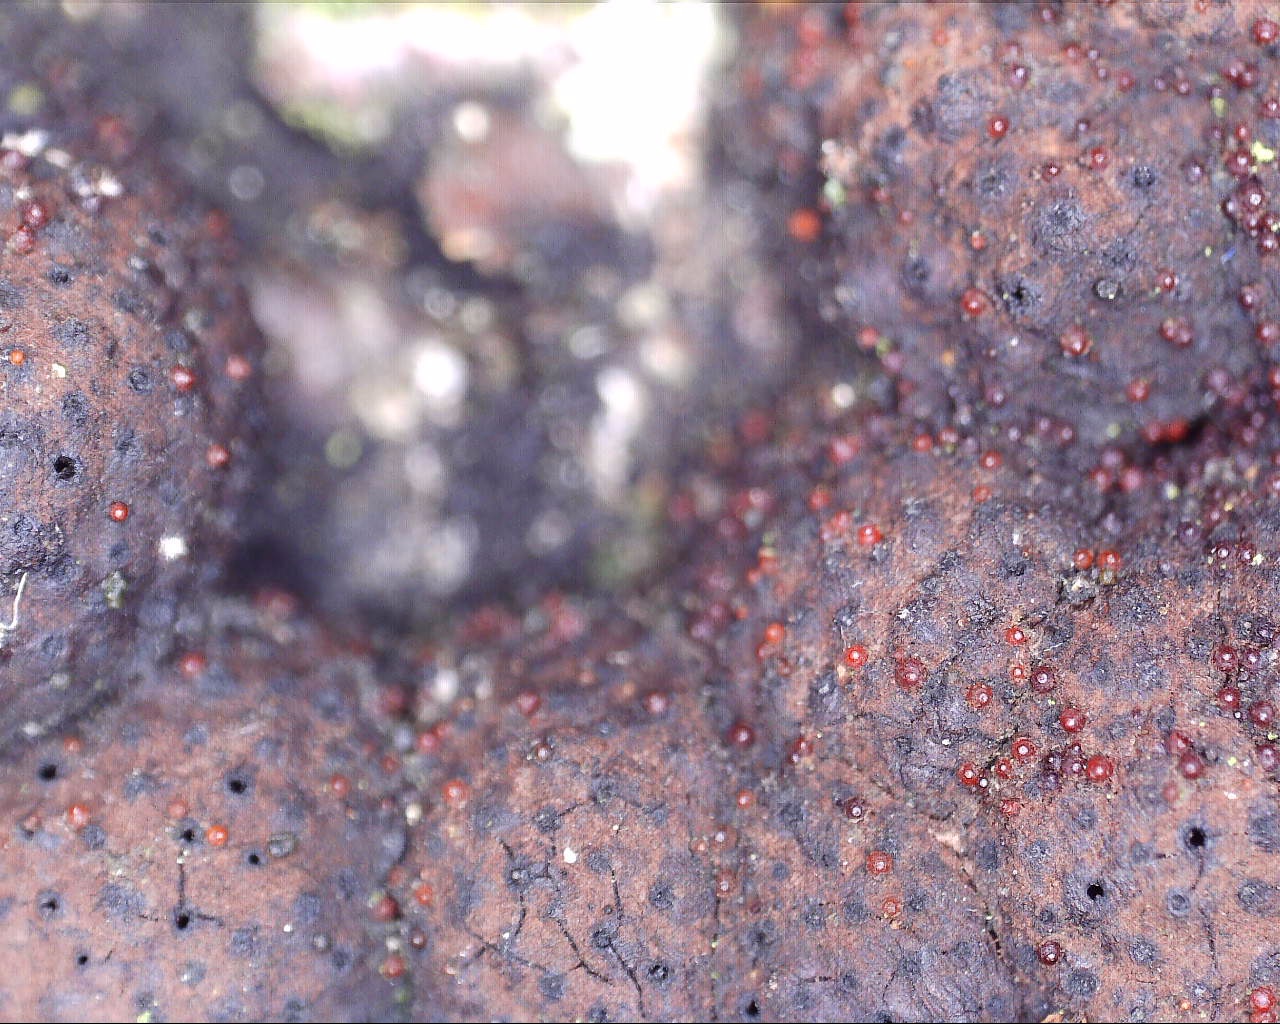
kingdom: Fungi
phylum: Ascomycota
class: Sordariomycetes
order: Hypocreales
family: Nectriaceae
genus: Cosmospora
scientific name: Cosmospora arxii
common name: kuljordbær-cinnobersvamp
